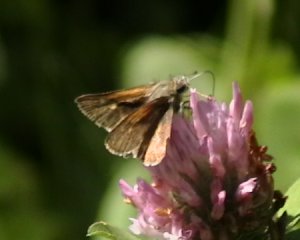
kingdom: Animalia
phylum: Arthropoda
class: Insecta
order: Lepidoptera
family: Hesperiidae
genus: Polites
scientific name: Polites themistocles
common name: Tawny-edged Skipper
